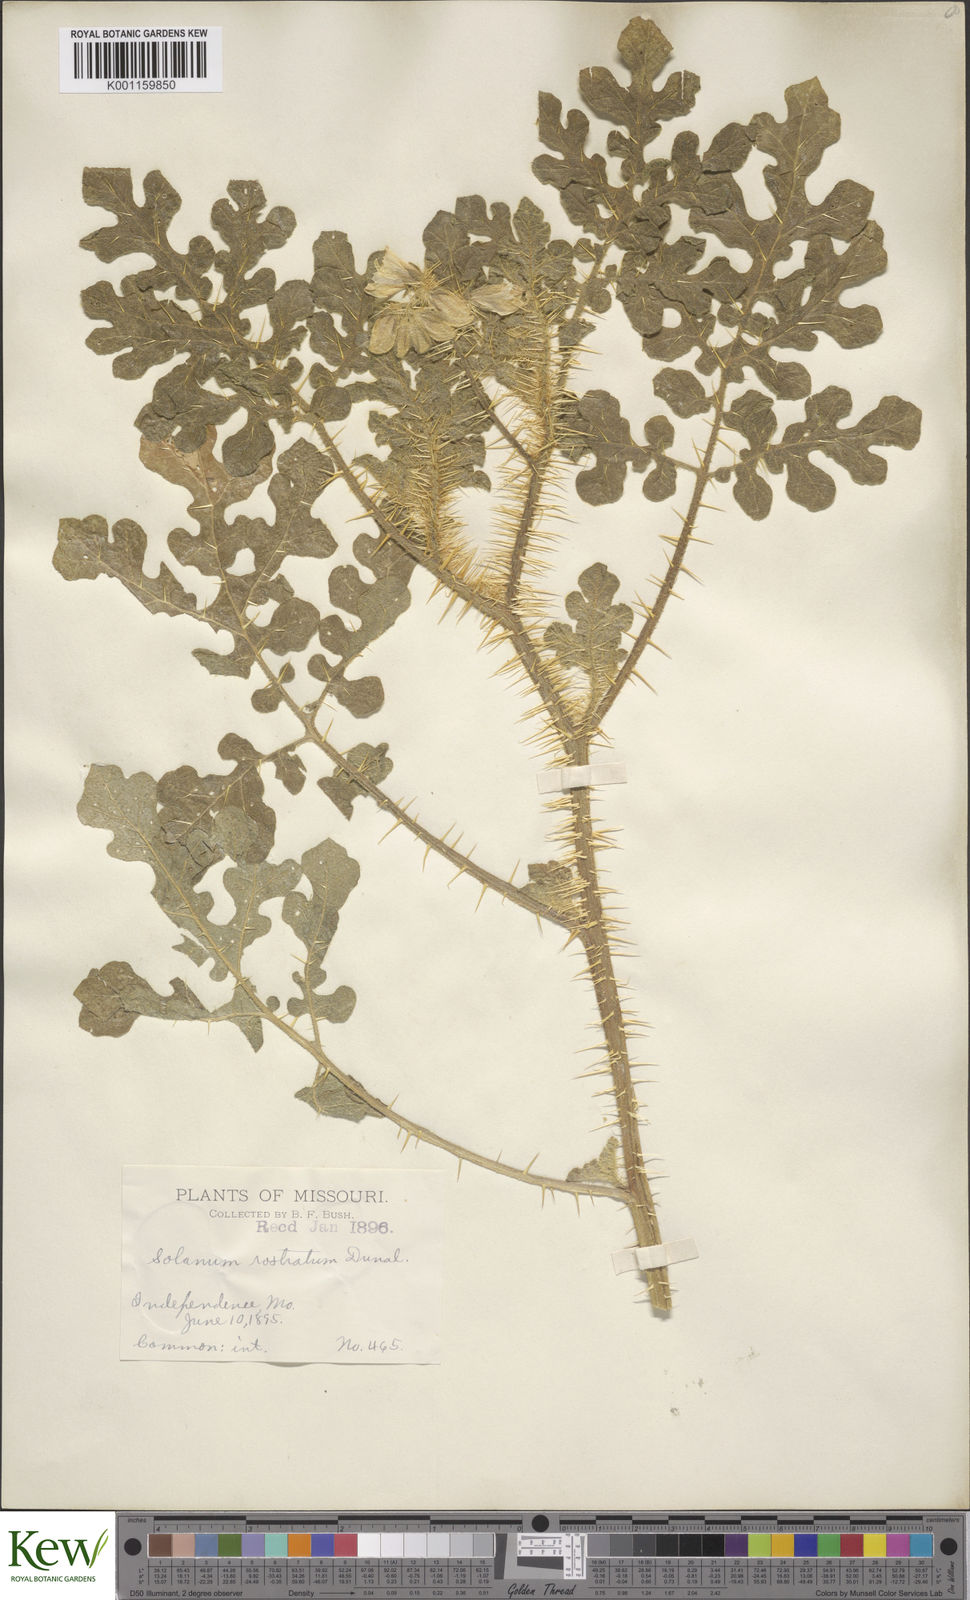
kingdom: Plantae
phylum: Tracheophyta
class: Magnoliopsida
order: Solanales
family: Solanaceae
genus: Solanum
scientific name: Solanum angustifolium
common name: Buffalobur nightshade
